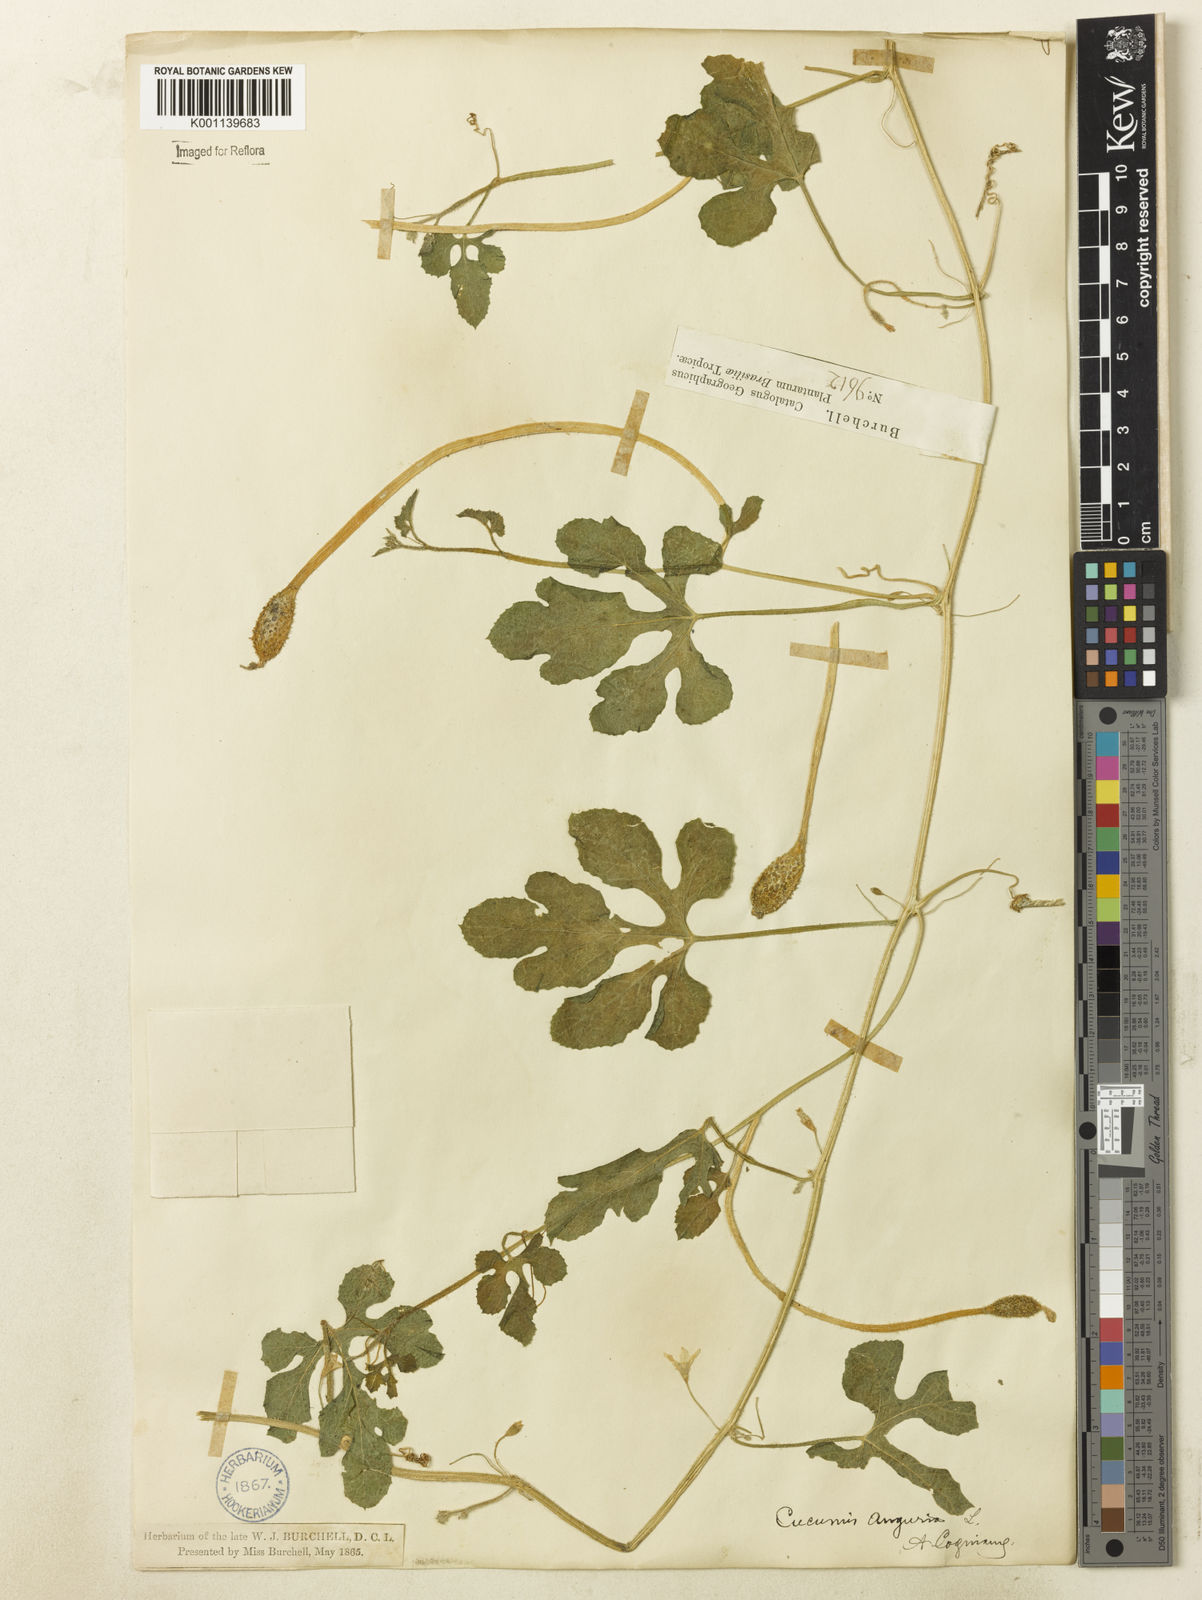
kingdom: Plantae
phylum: Tracheophyta
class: Magnoliopsida
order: Cucurbitales
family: Cucurbitaceae
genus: Cucumis
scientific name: Cucumis anguria
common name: West indian gherkin
